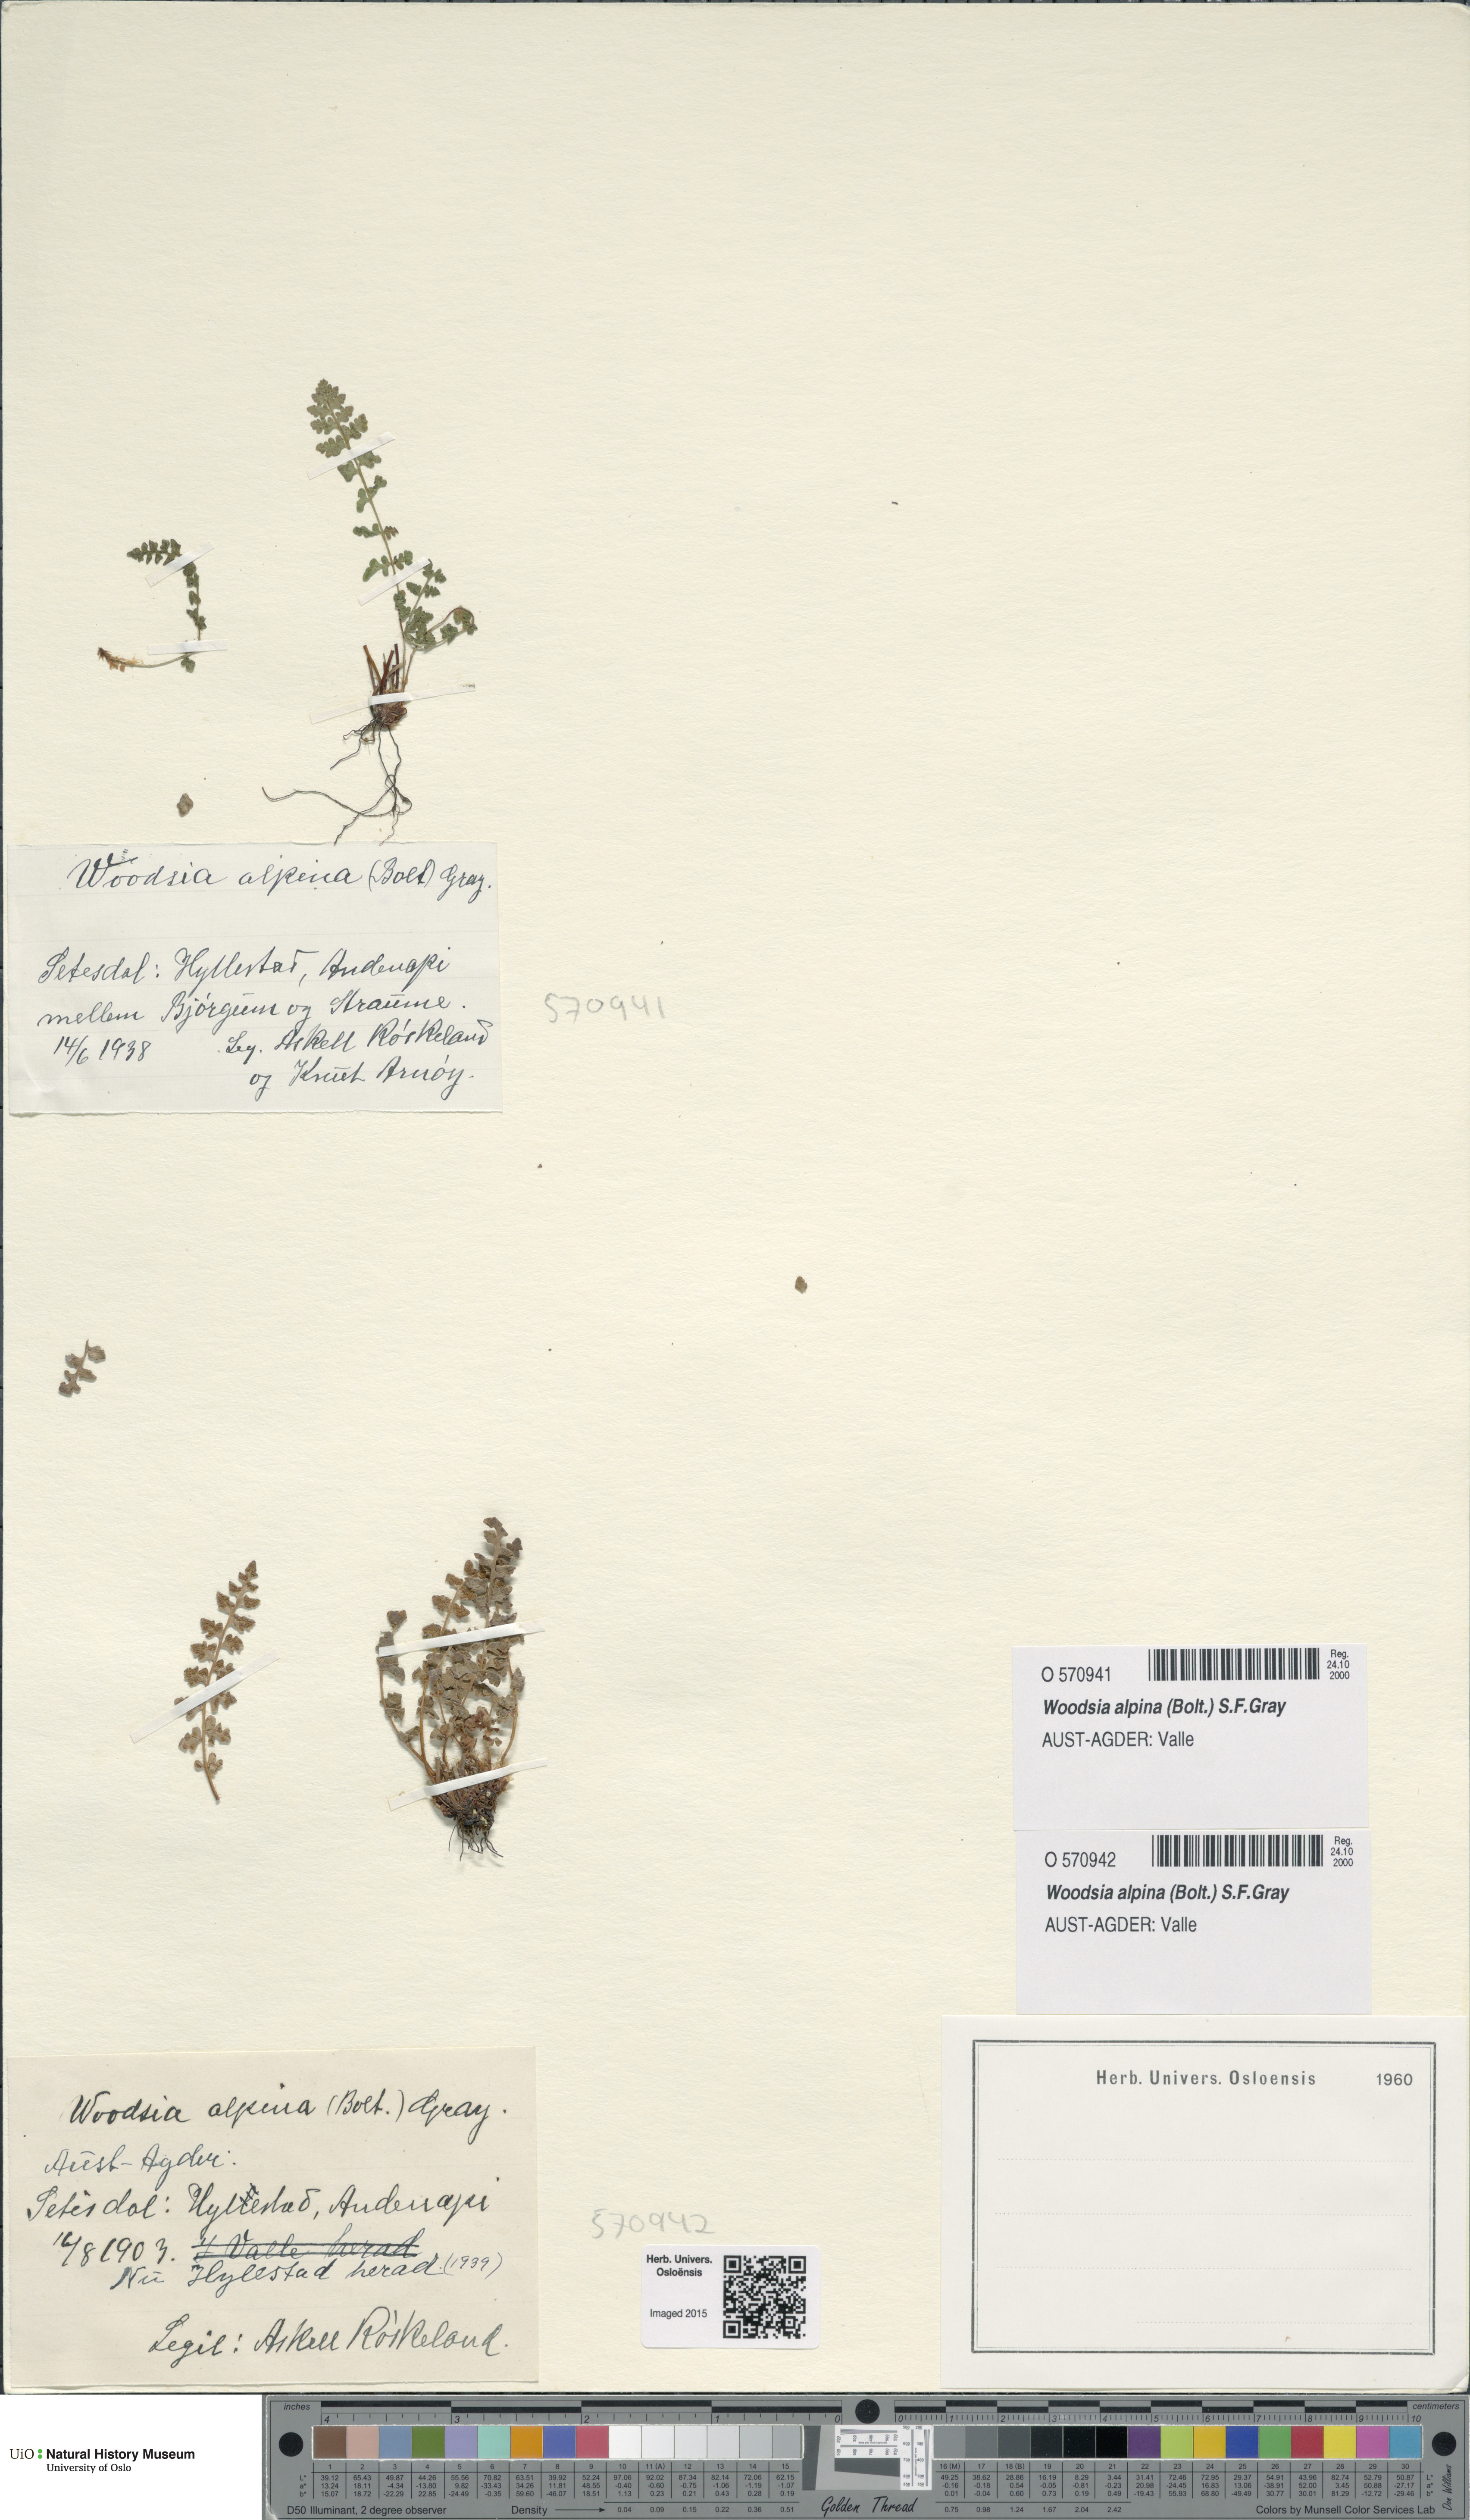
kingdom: Plantae
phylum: Tracheophyta
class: Polypodiopsida
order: Polypodiales
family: Woodsiaceae
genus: Woodsia
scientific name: Woodsia alpina
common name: Alpine woodsia
